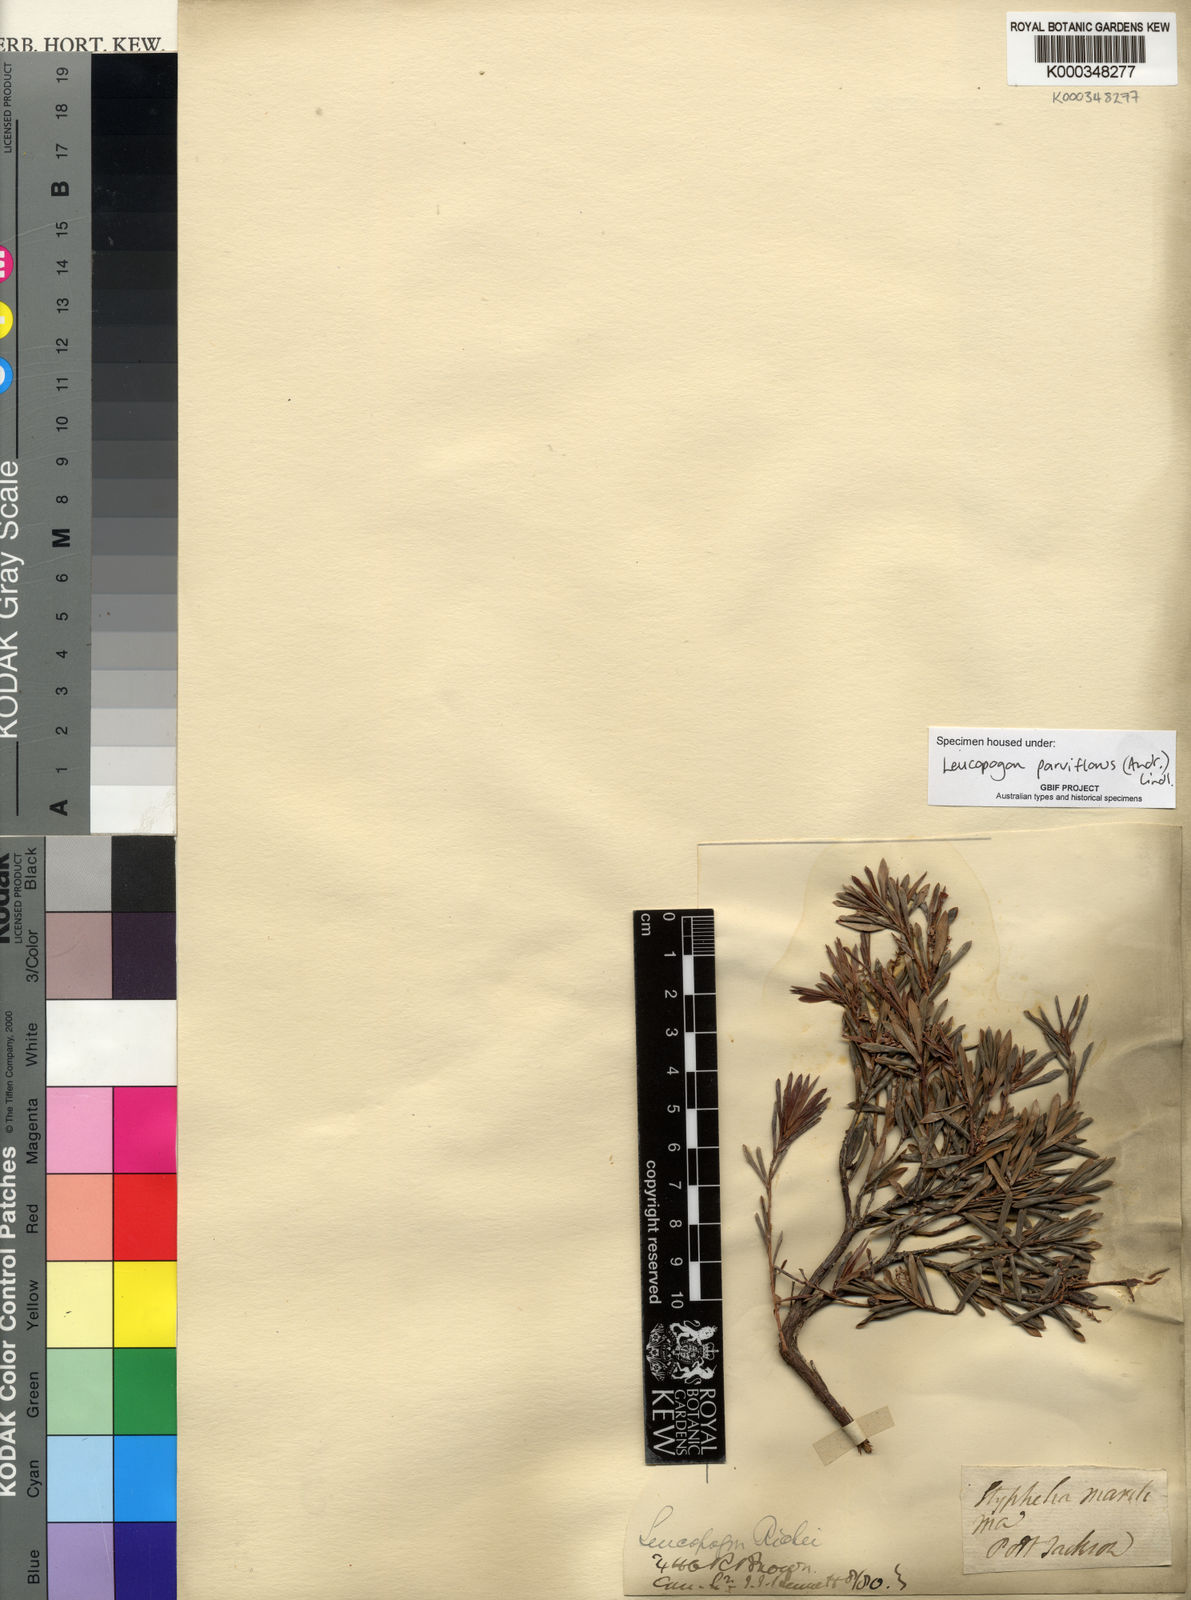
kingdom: Plantae
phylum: Tracheophyta
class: Magnoliopsida
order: Ericales
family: Ericaceae
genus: Leptecophylla
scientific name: Leptecophylla parvifolia
